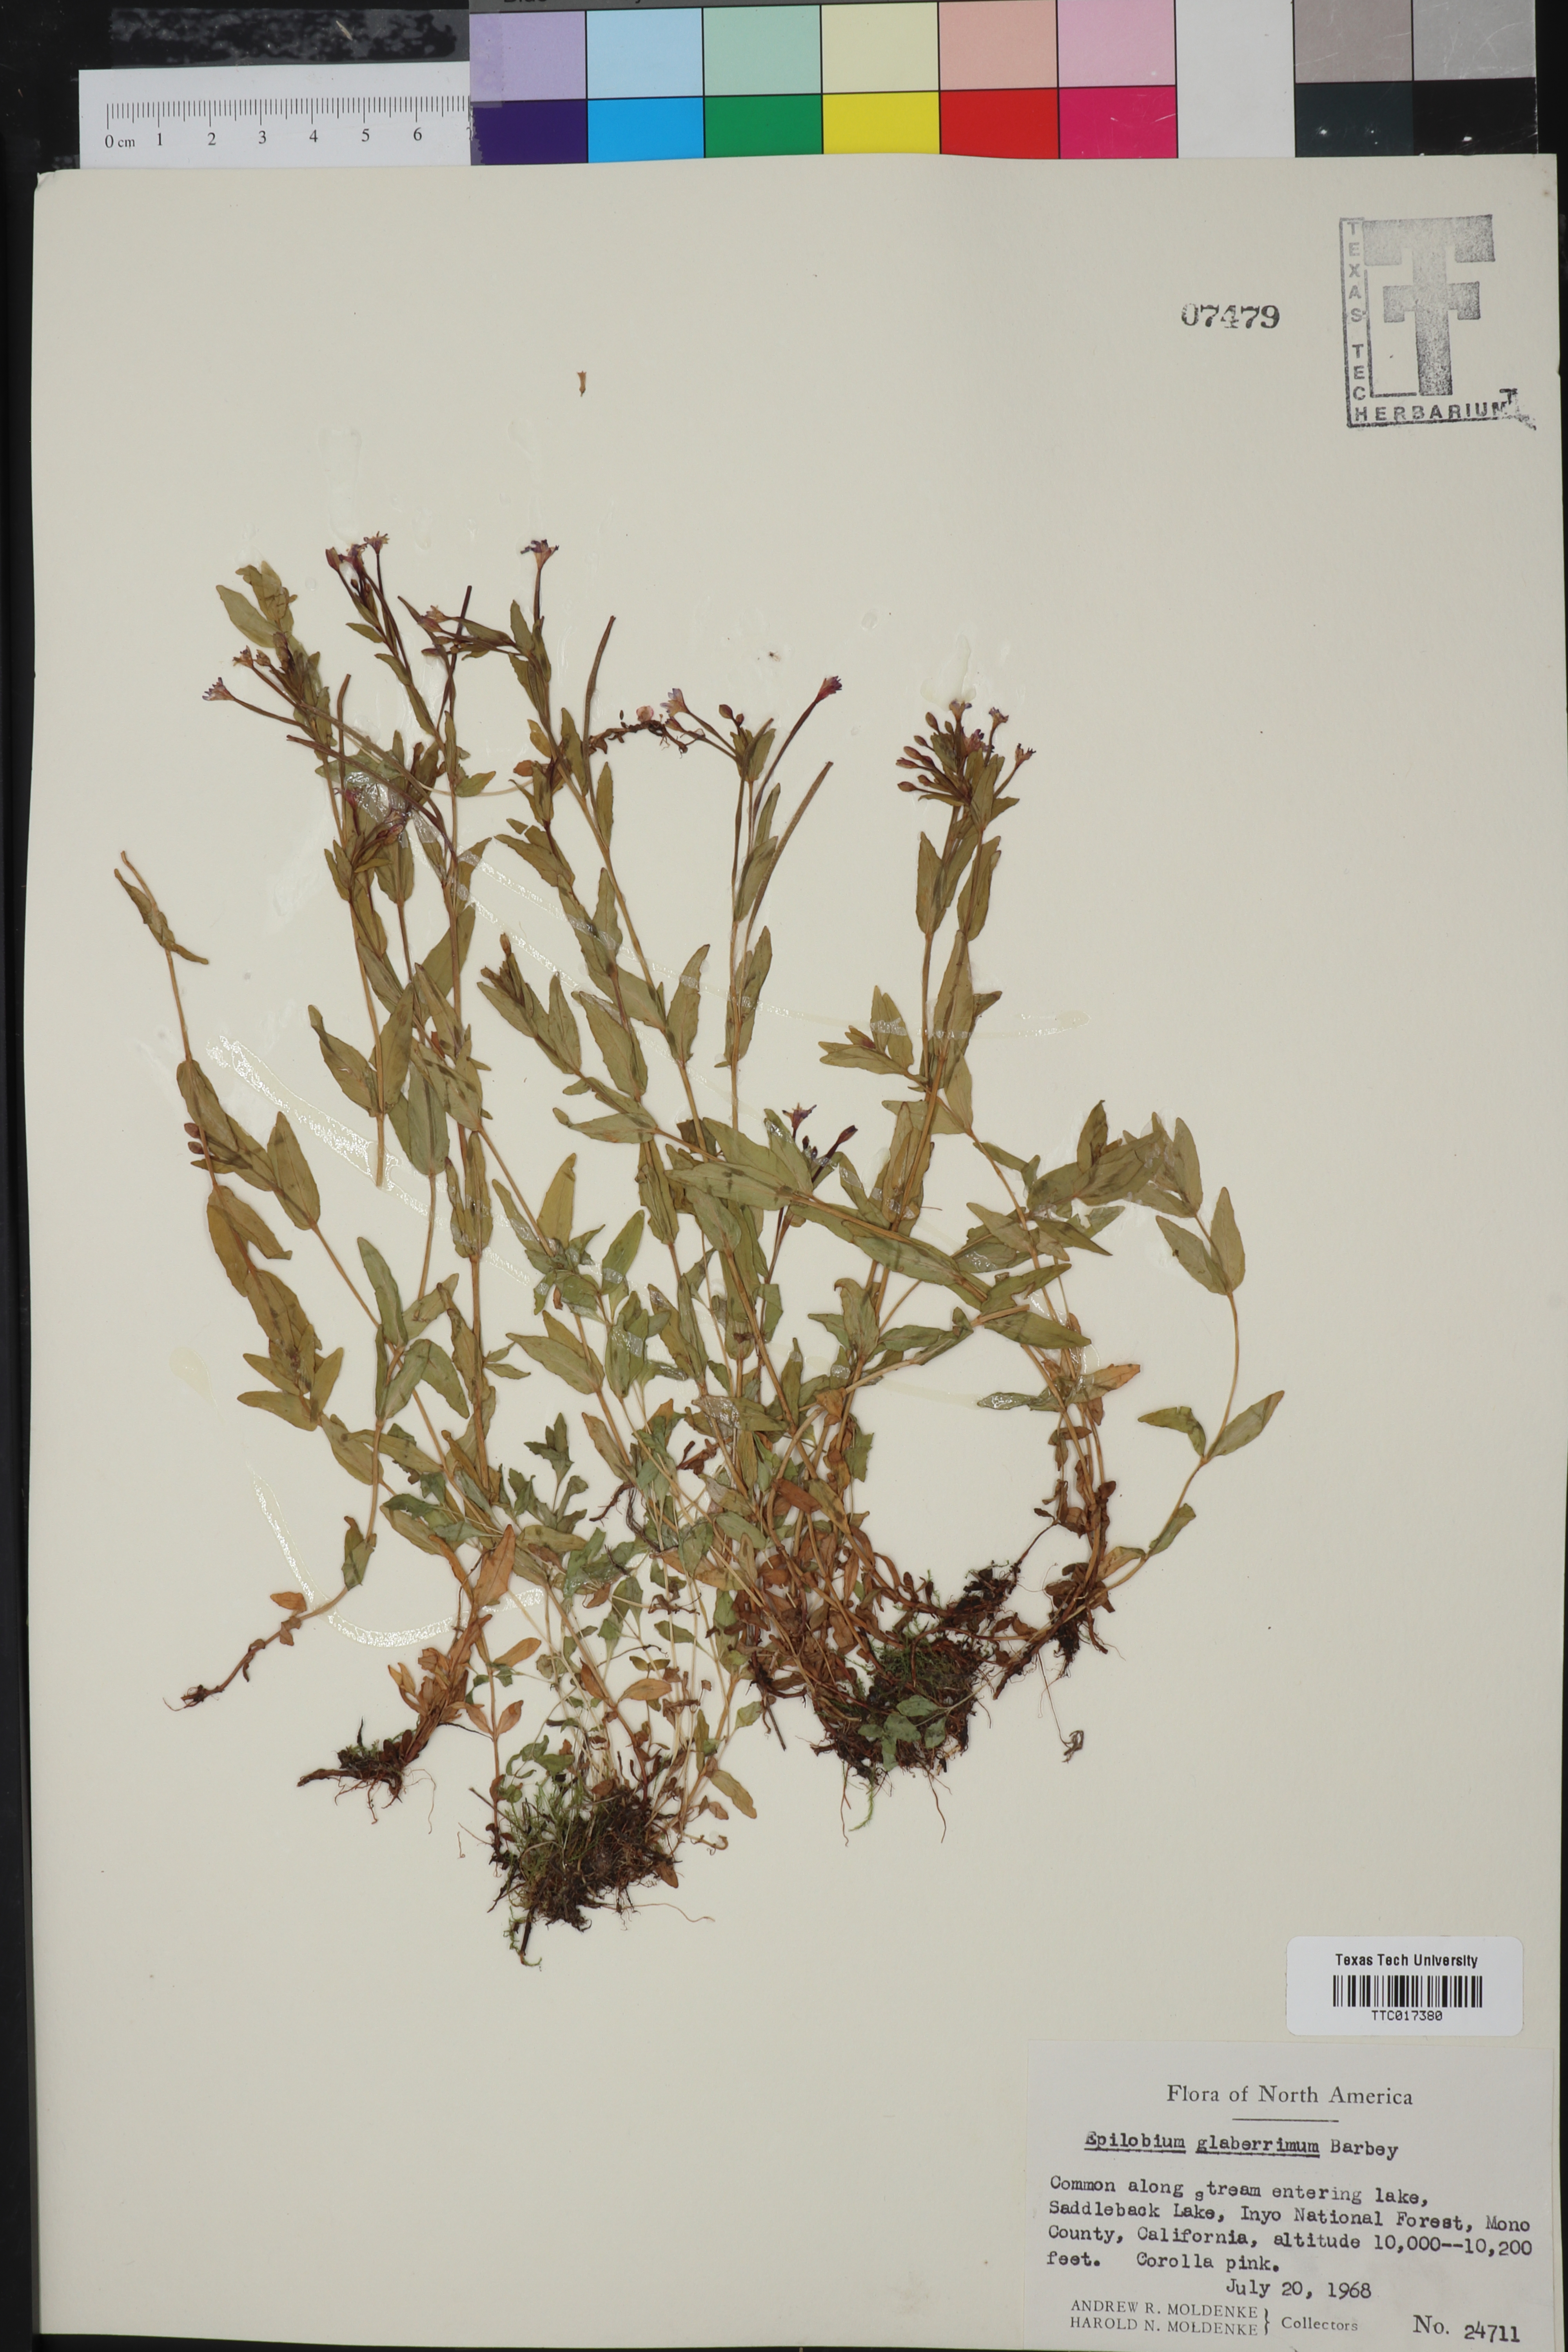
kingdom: Plantae
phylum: Tracheophyta
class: Magnoliopsida
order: Myrtales
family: Onagraceae
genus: Epilobium
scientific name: Epilobium glaberrimum
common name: Glaucous willowherb
